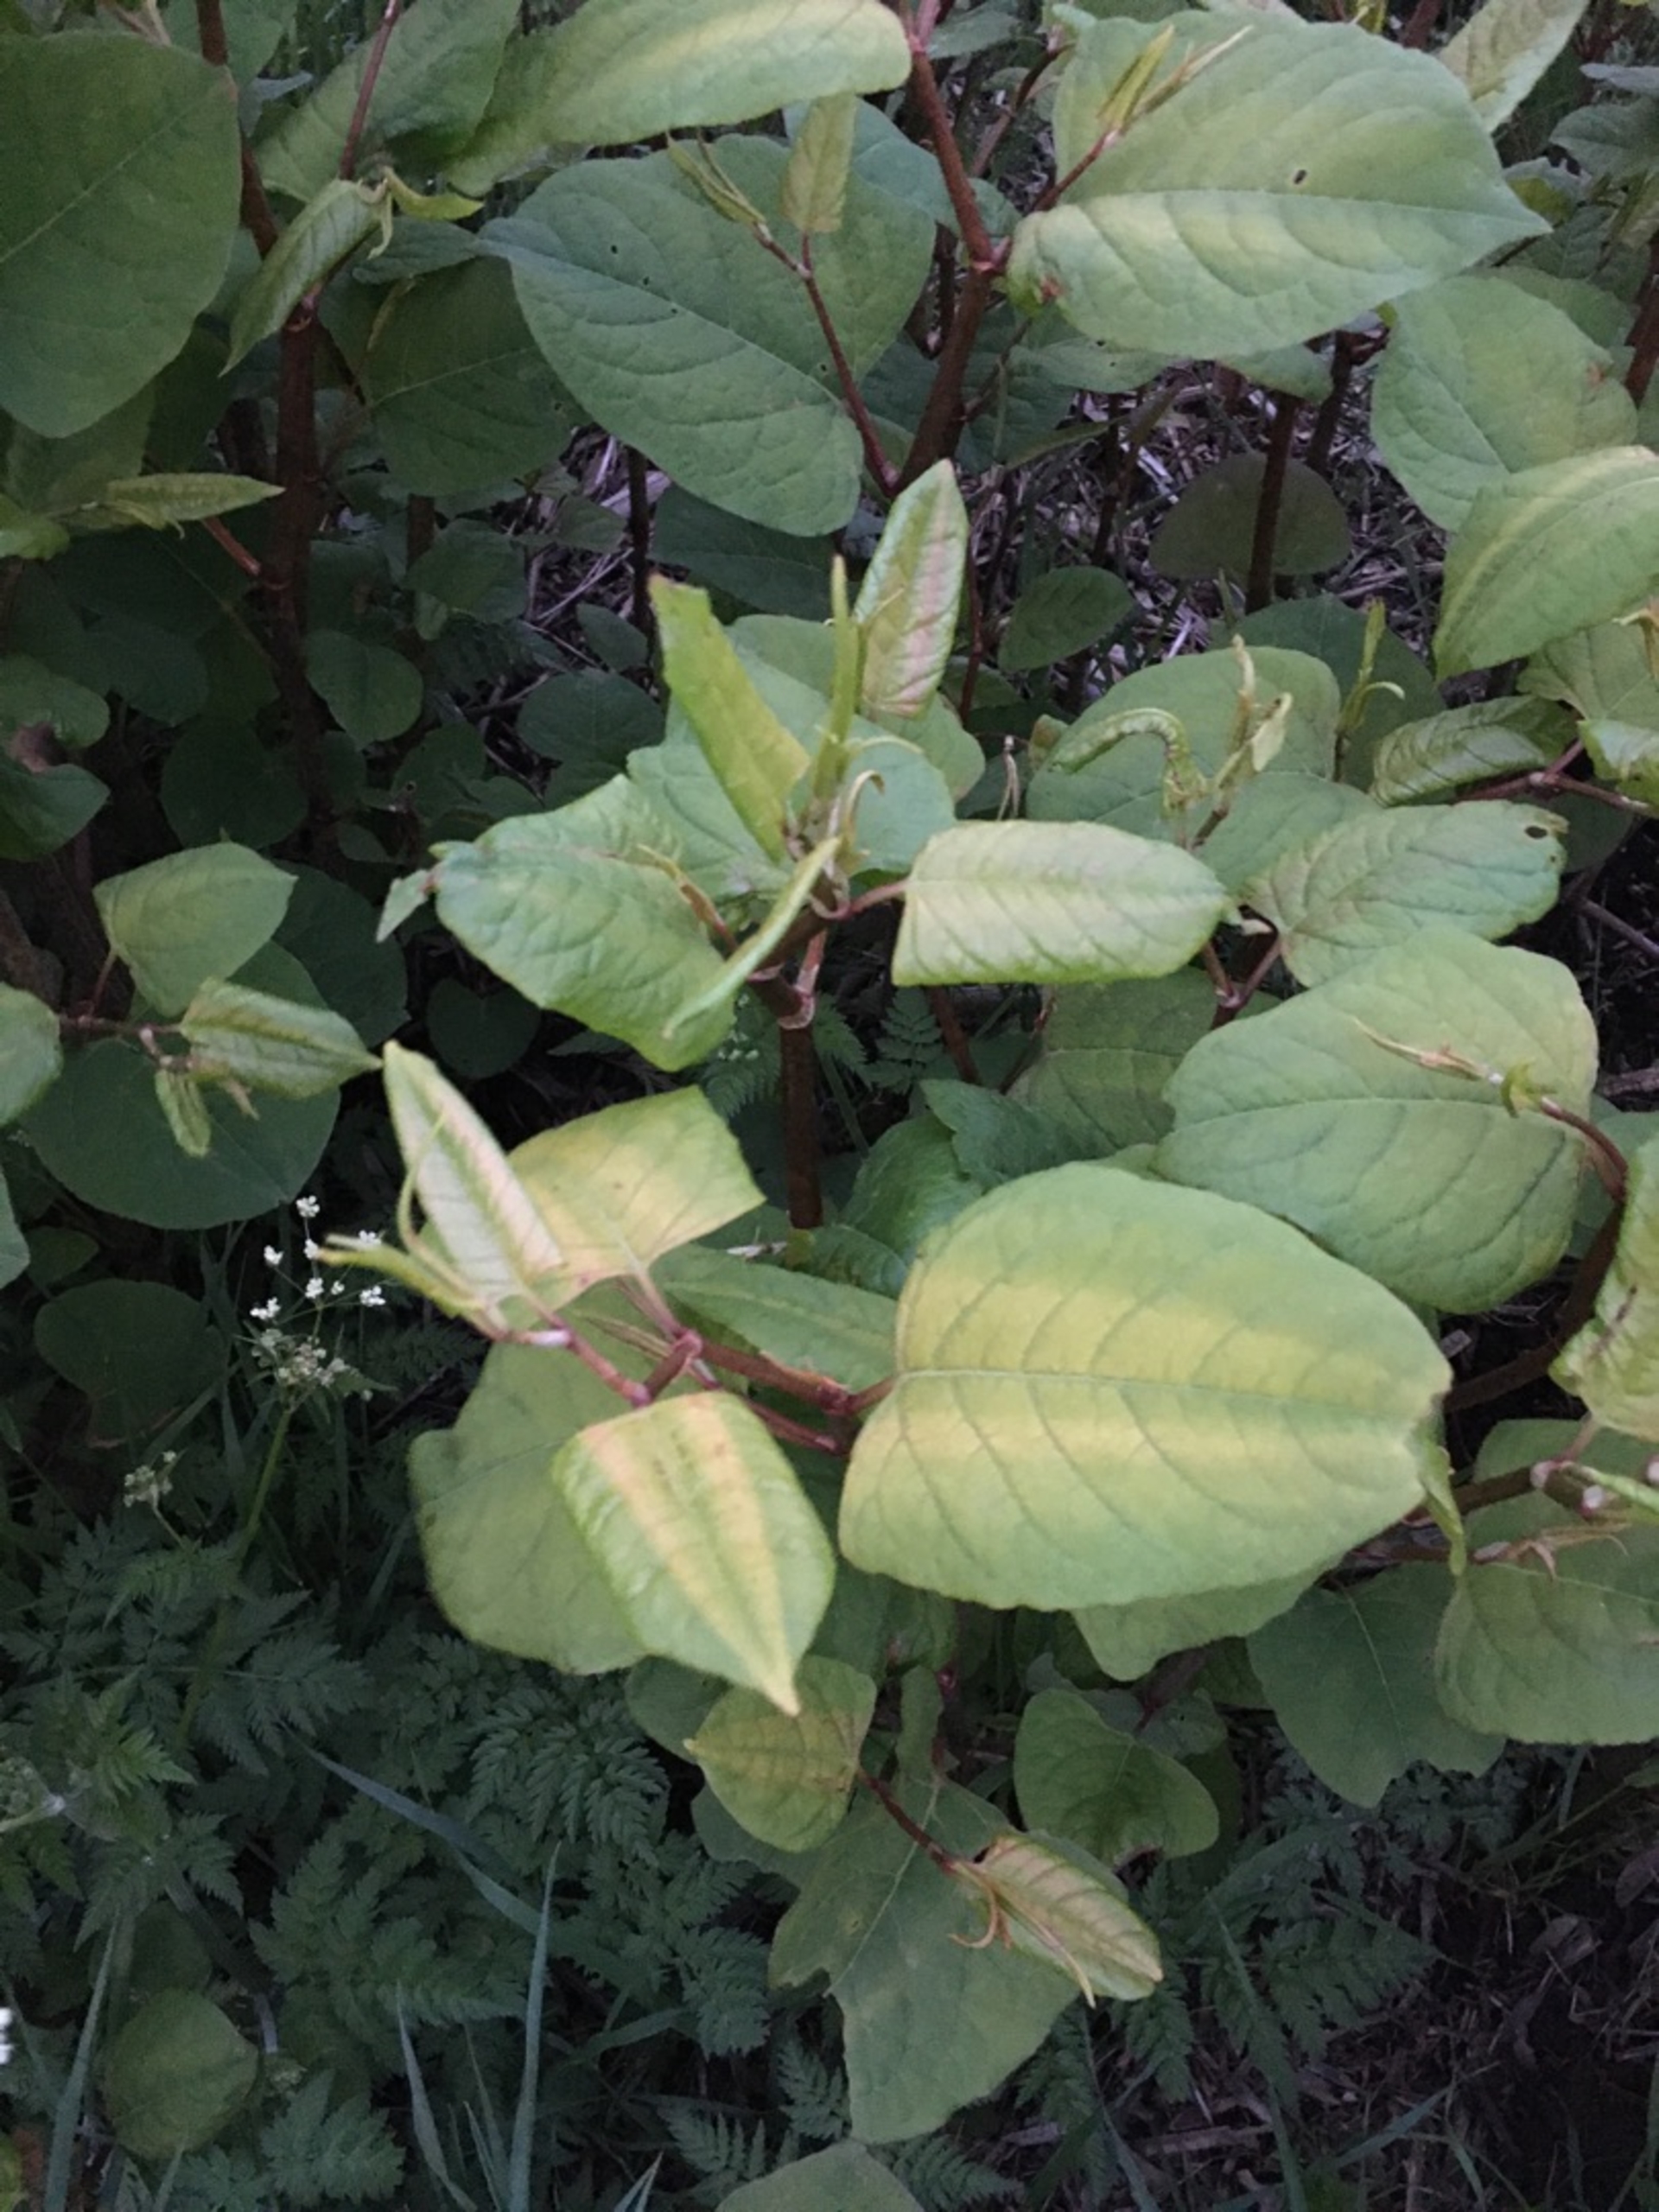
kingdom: Plantae
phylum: Tracheophyta
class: Magnoliopsida
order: Caryophyllales
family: Polygonaceae
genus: Reynoutria
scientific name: Reynoutria japonica
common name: Japan-pileurt
